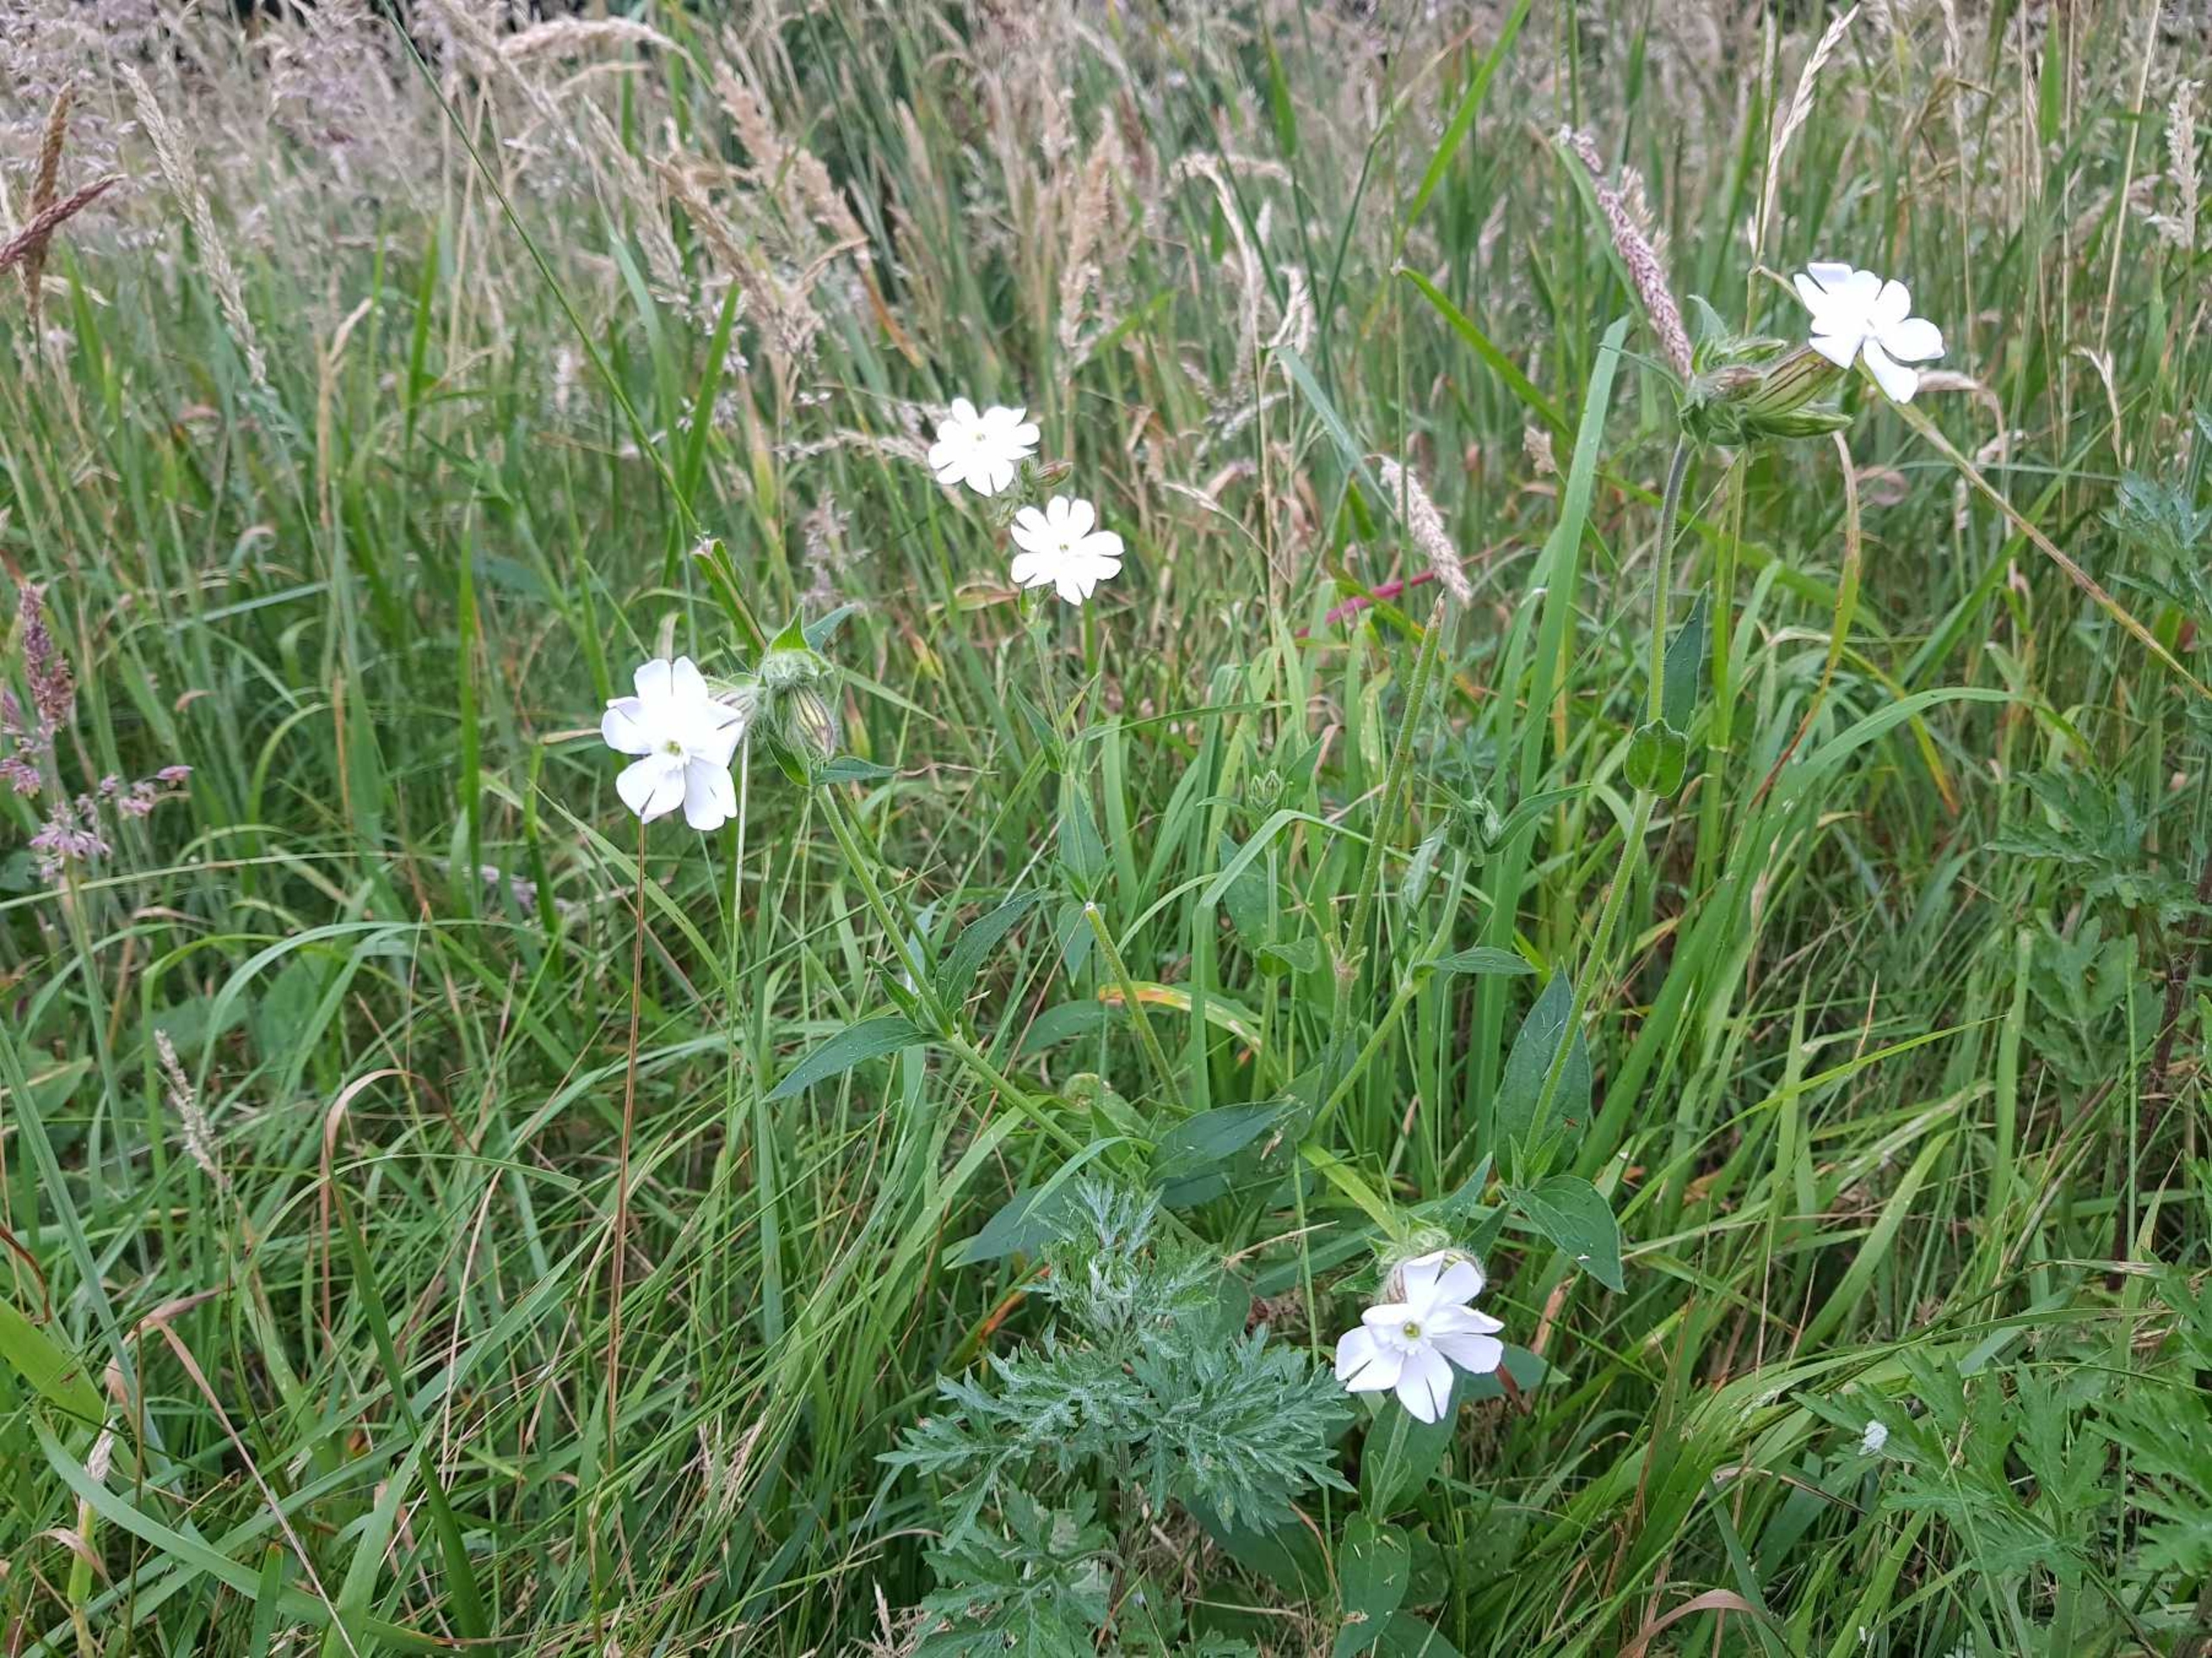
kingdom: Plantae
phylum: Tracheophyta
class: Magnoliopsida
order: Caryophyllales
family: Caryophyllaceae
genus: Silene
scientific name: Silene latifolia
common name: Aftenpragtstjerne
